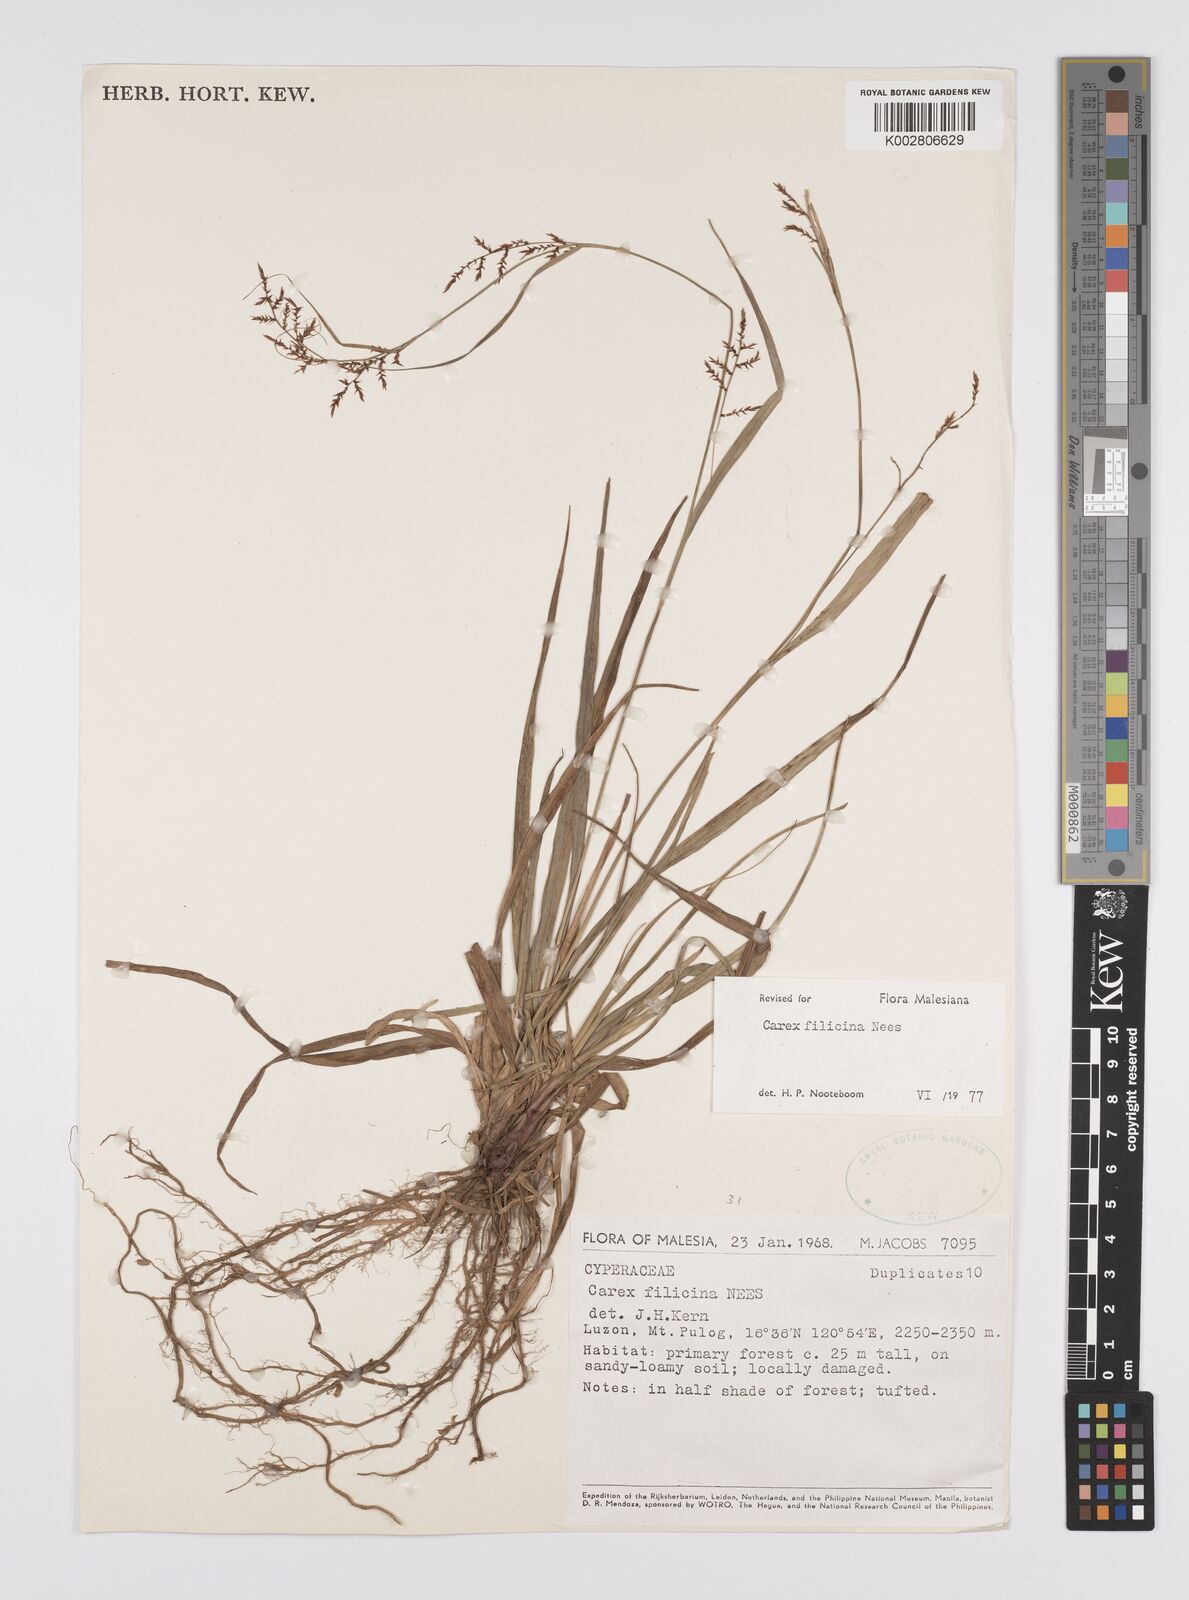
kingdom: Plantae
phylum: Tracheophyta
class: Liliopsida
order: Poales
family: Cyperaceae
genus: Carex
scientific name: Carex filicina
